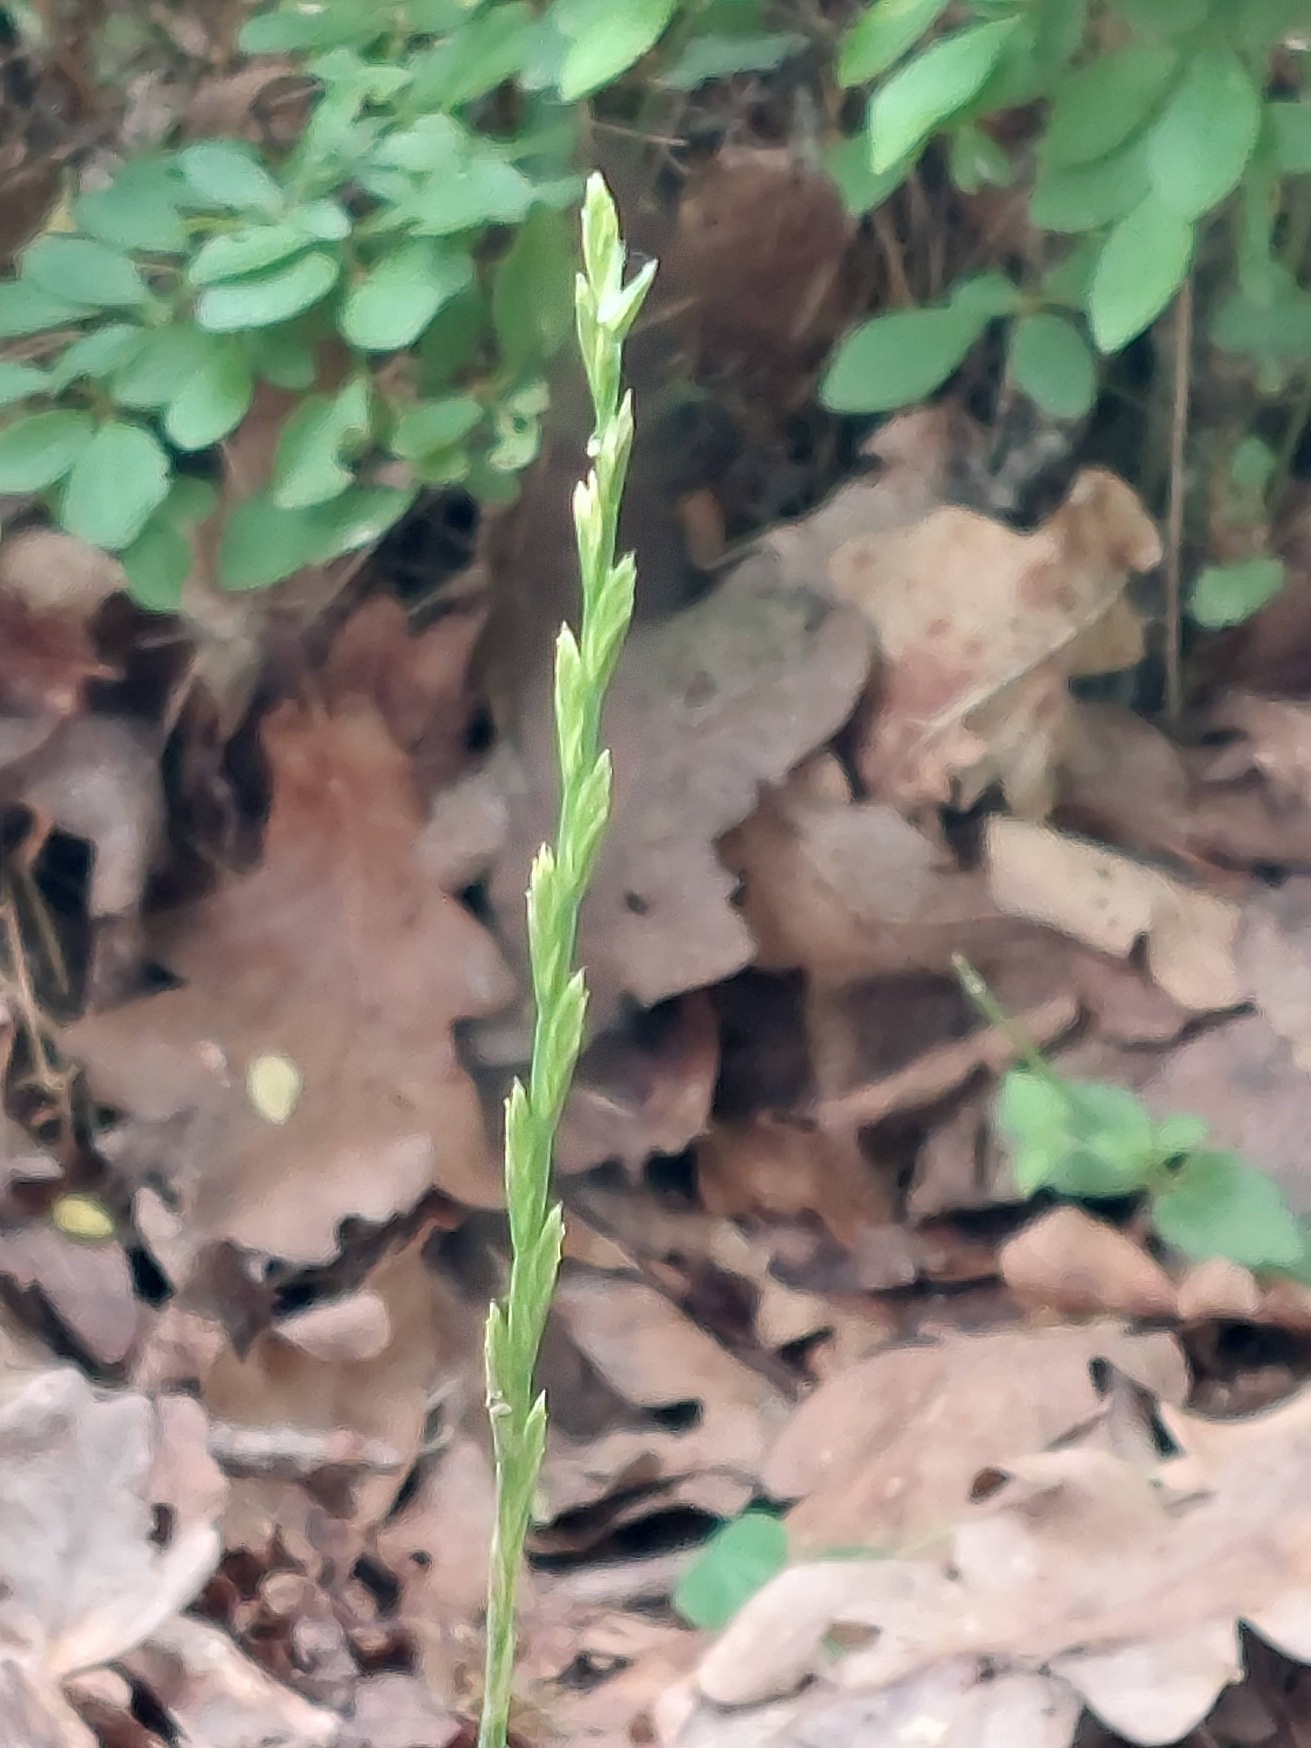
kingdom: Plantae
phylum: Tracheophyta
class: Liliopsida
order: Poales
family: Poaceae
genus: Lolium
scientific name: Lolium perenne
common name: Almindelig rajgræs
